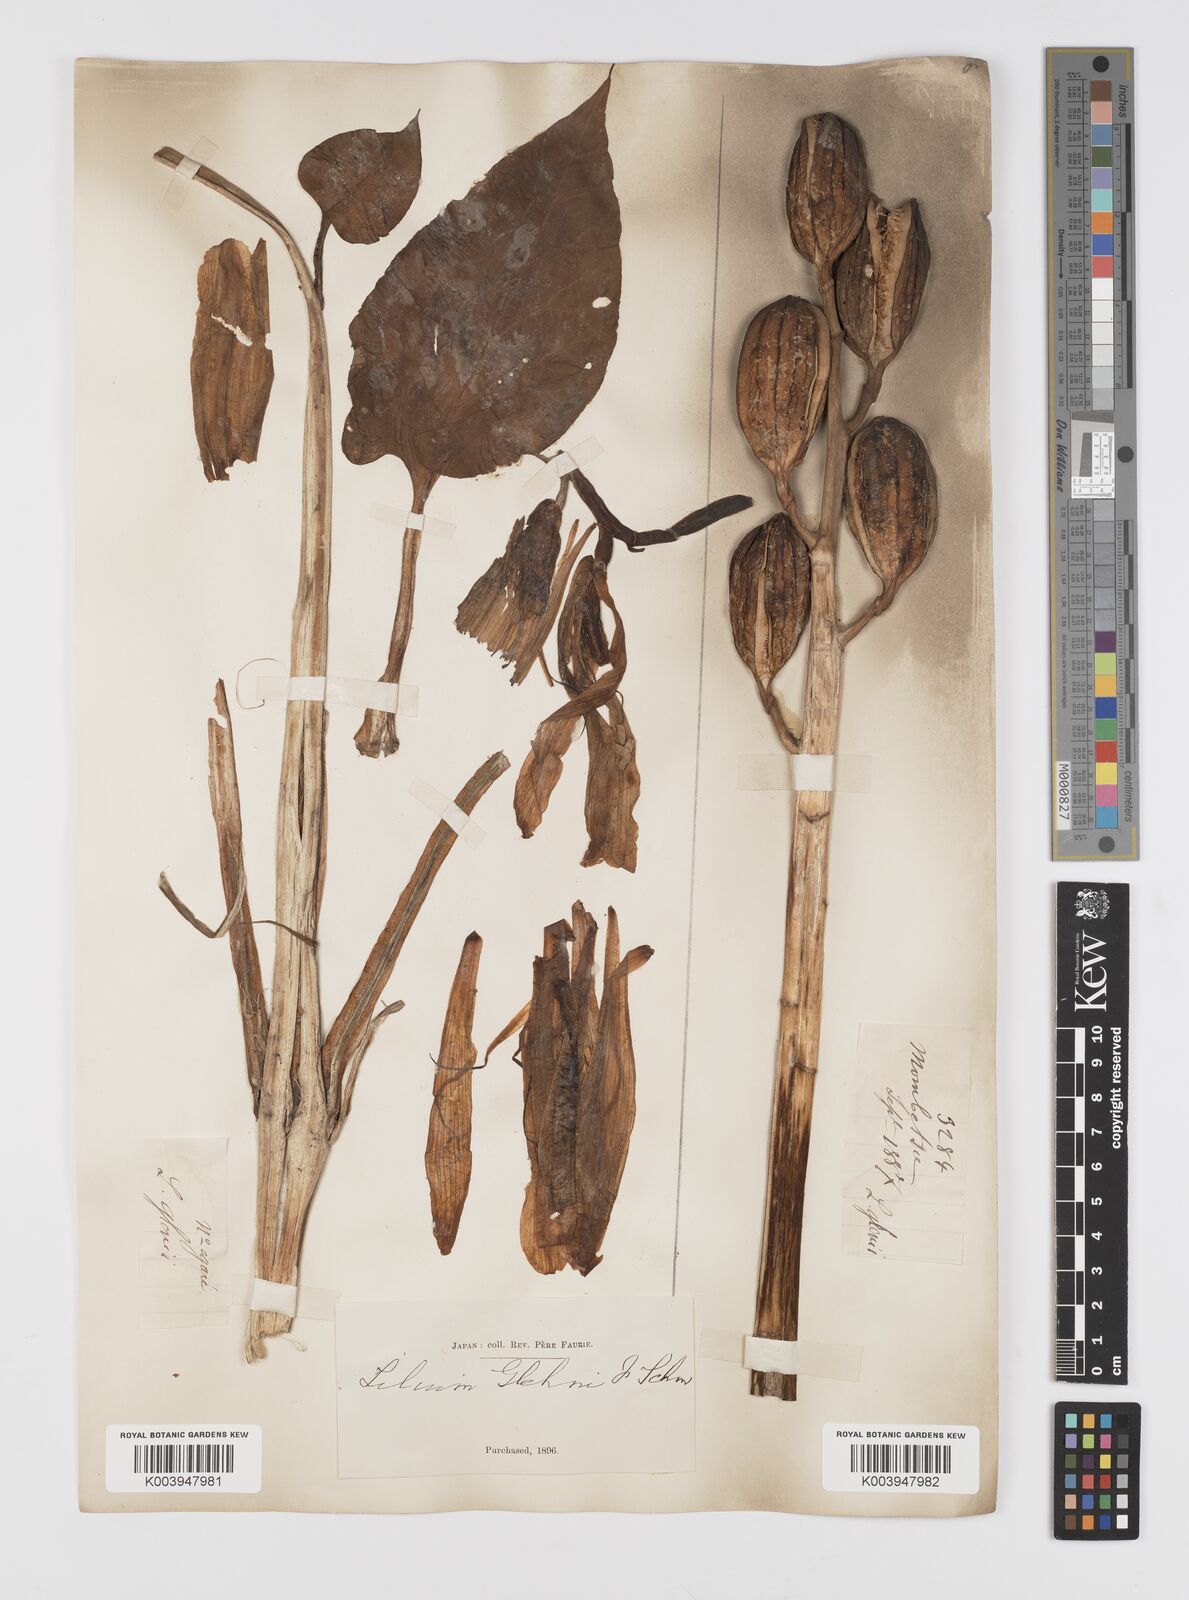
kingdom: Plantae
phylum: Tracheophyta
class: Liliopsida
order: Liliales
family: Liliaceae
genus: Cardiocrinum
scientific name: Cardiocrinum
